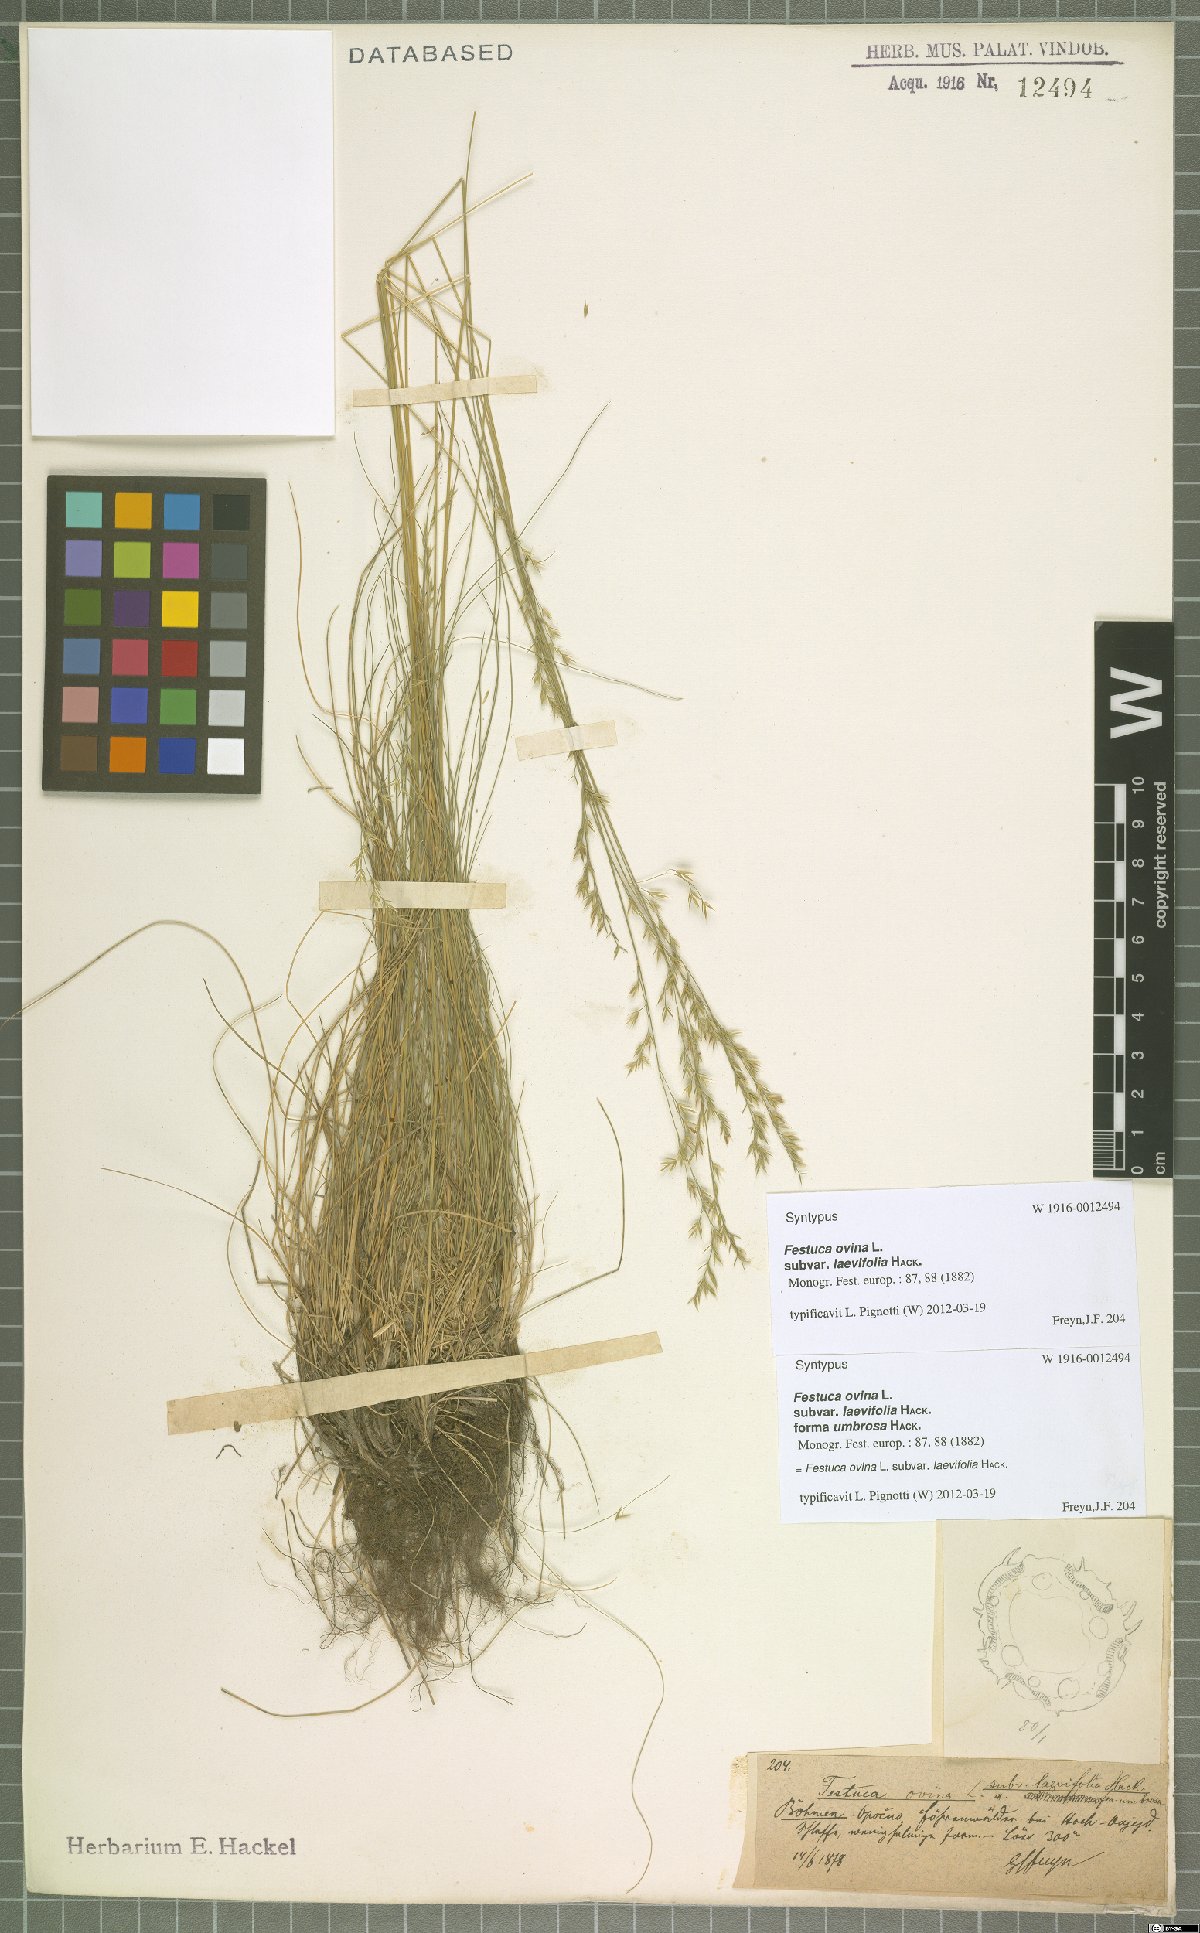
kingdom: Plantae
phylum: Tracheophyta
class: Liliopsida
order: Poales
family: Poaceae
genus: Festuca
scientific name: Festuca ovina
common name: Sheep fescue
